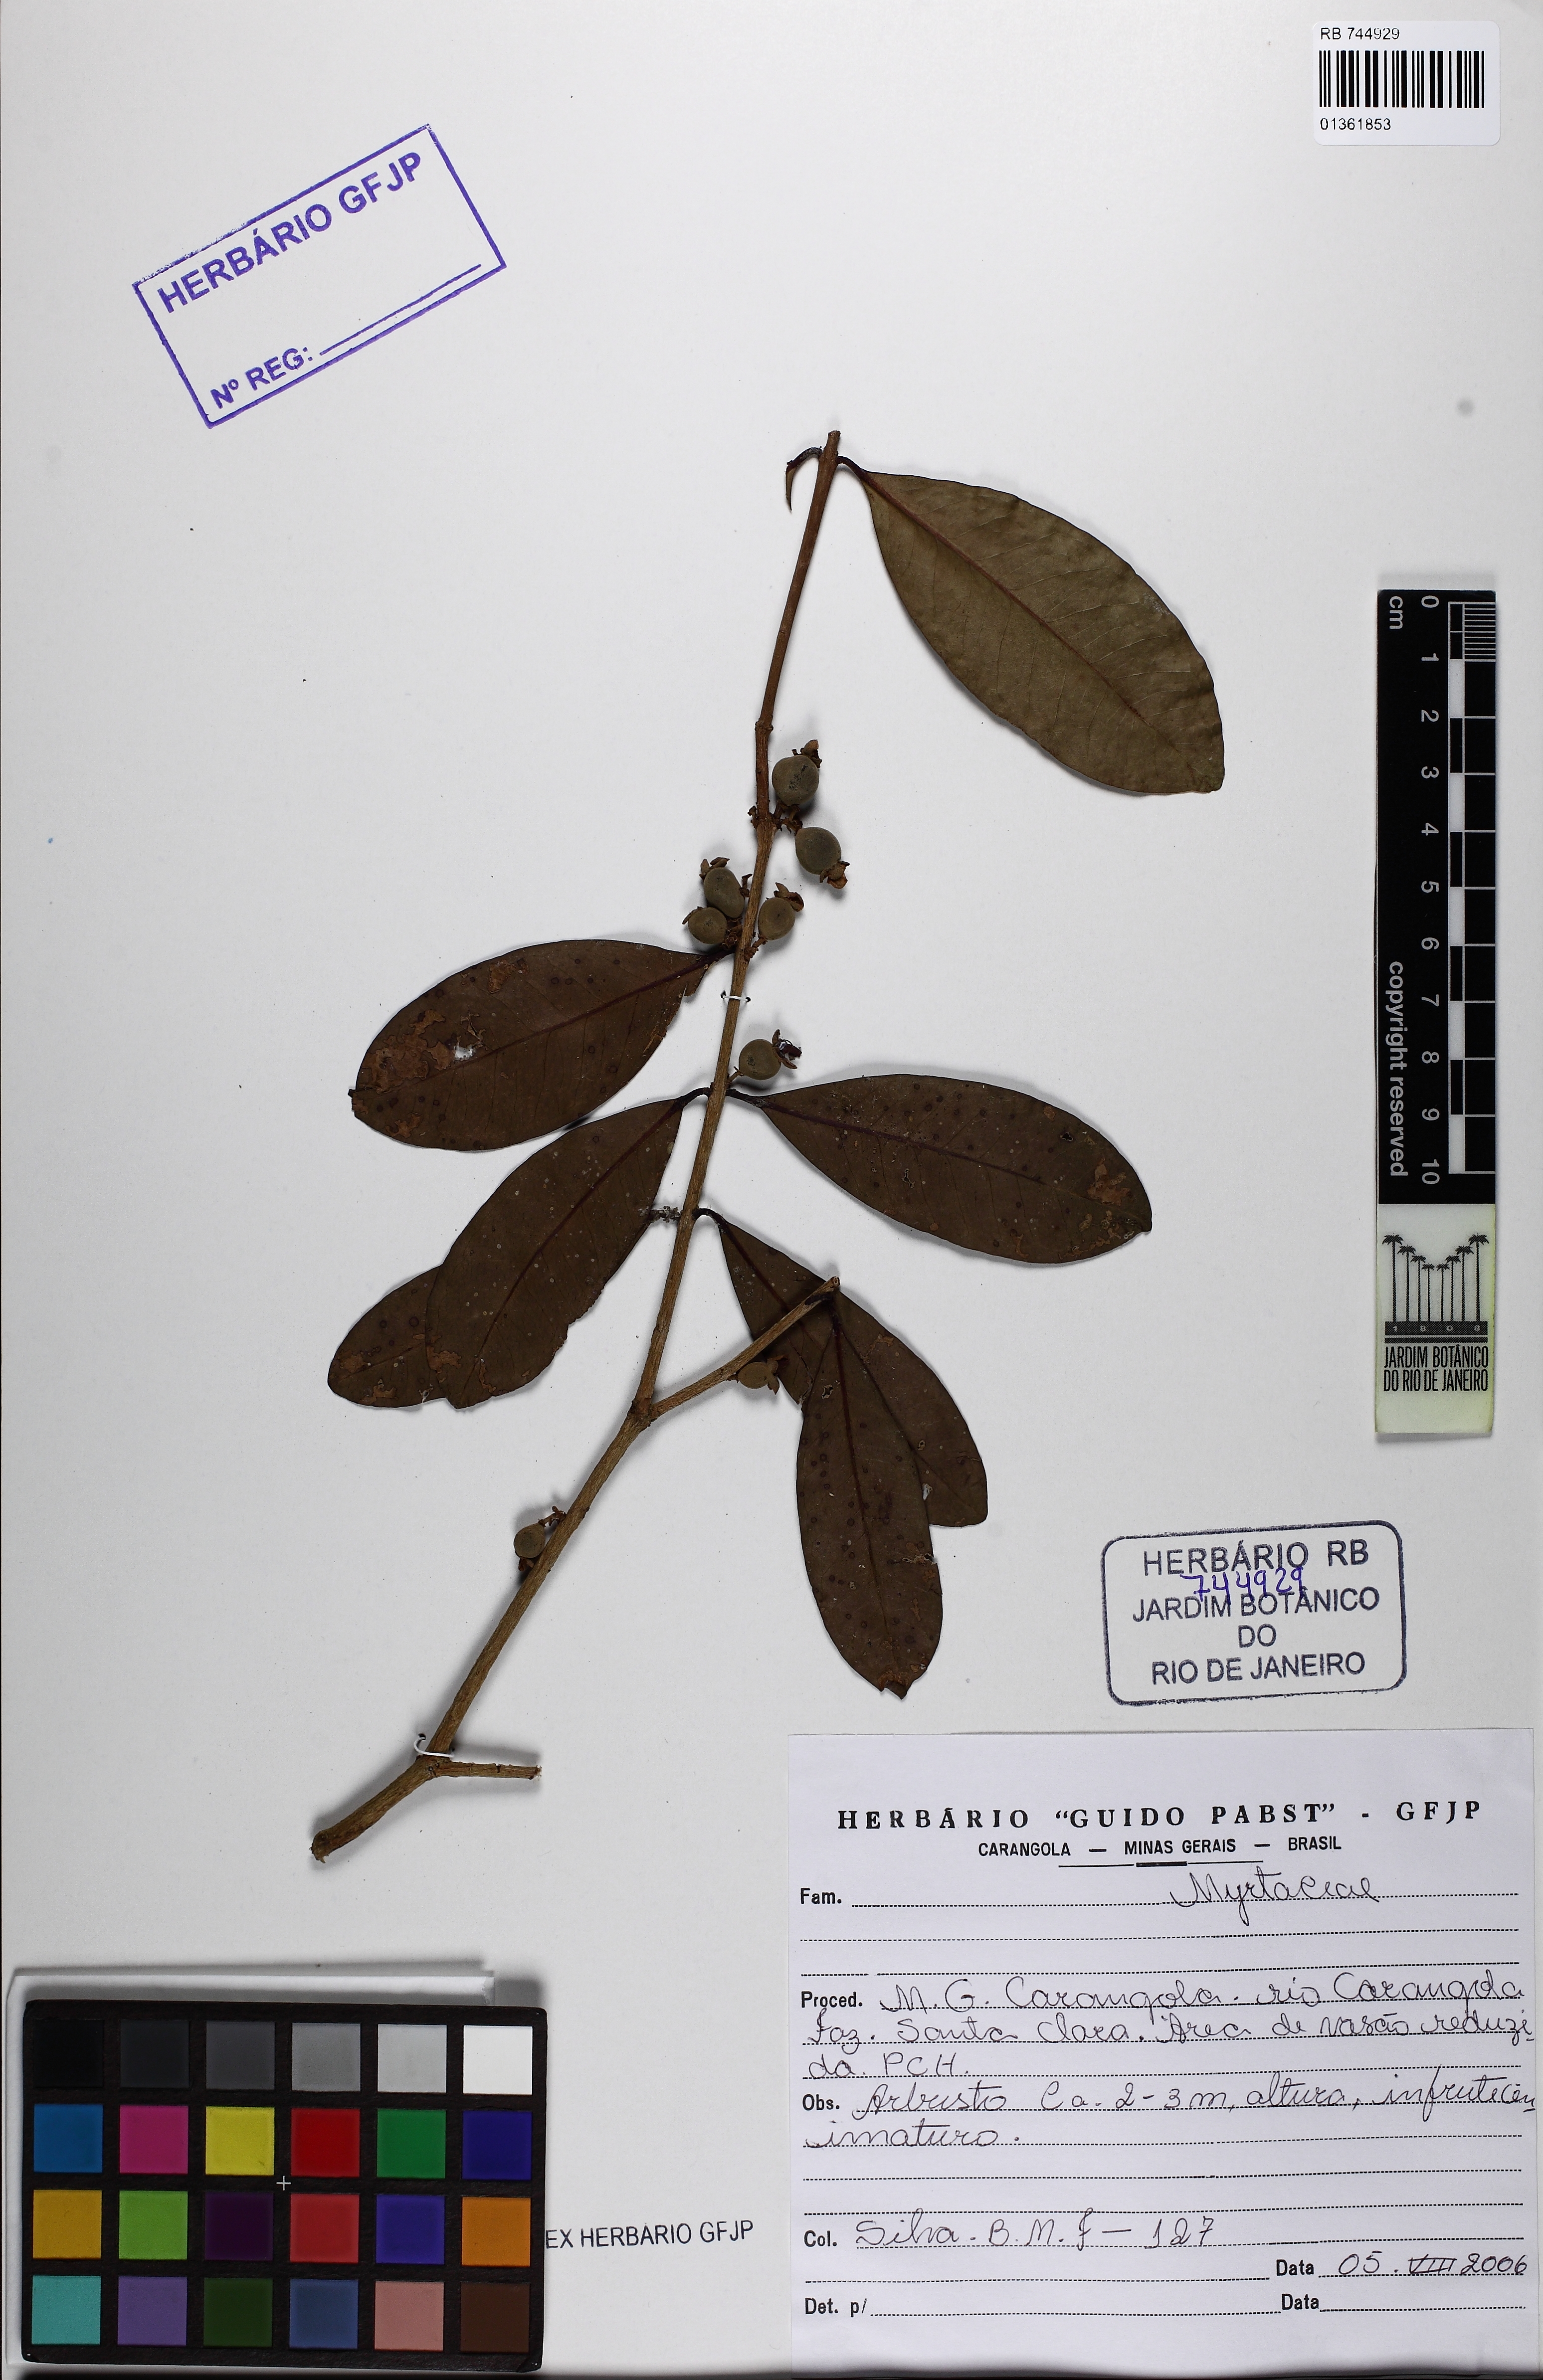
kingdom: Plantae
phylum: Tracheophyta
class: Magnoliopsida
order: Myrtales
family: Myrtaceae
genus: Eugenia
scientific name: Eugenia schottiana
